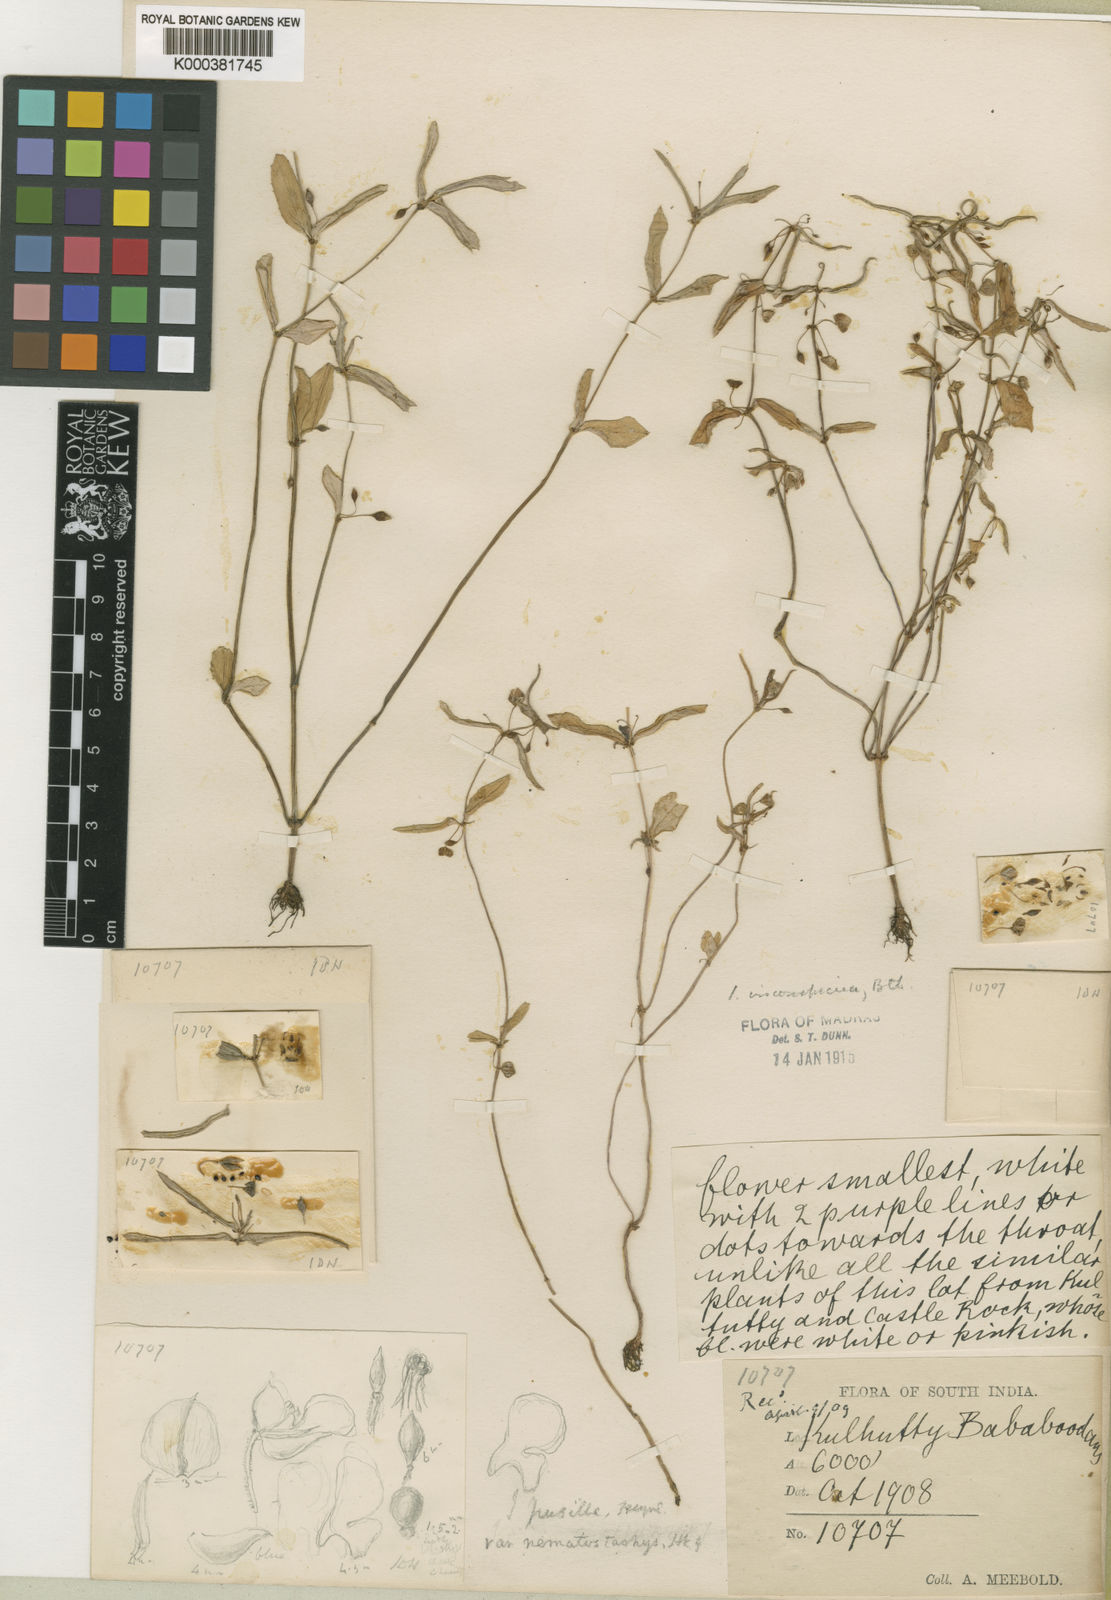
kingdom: Plantae
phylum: Tracheophyta
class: Magnoliopsida
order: Ericales
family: Balsaminaceae
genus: Impatiens
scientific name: Impatiens
